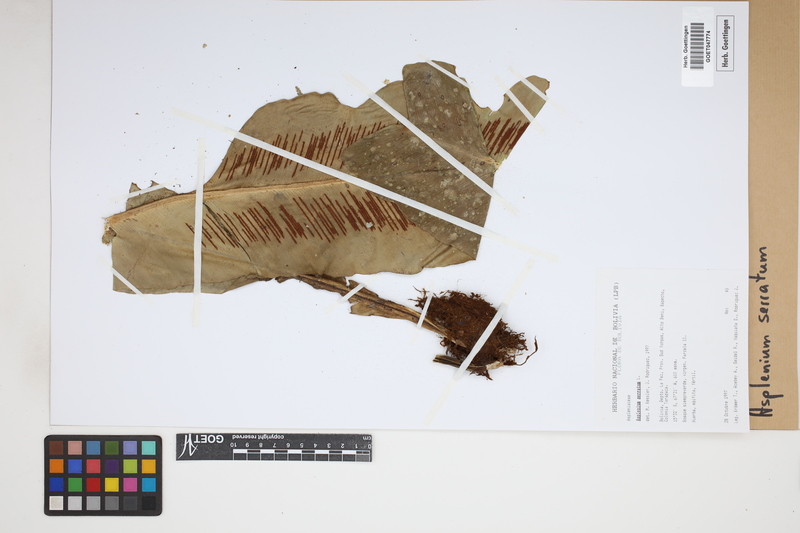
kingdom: Plantae
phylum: Tracheophyta
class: Polypodiopsida
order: Polypodiales
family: Aspleniaceae
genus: Asplenium
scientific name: Asplenium serratum
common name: Wild birdnest fern
